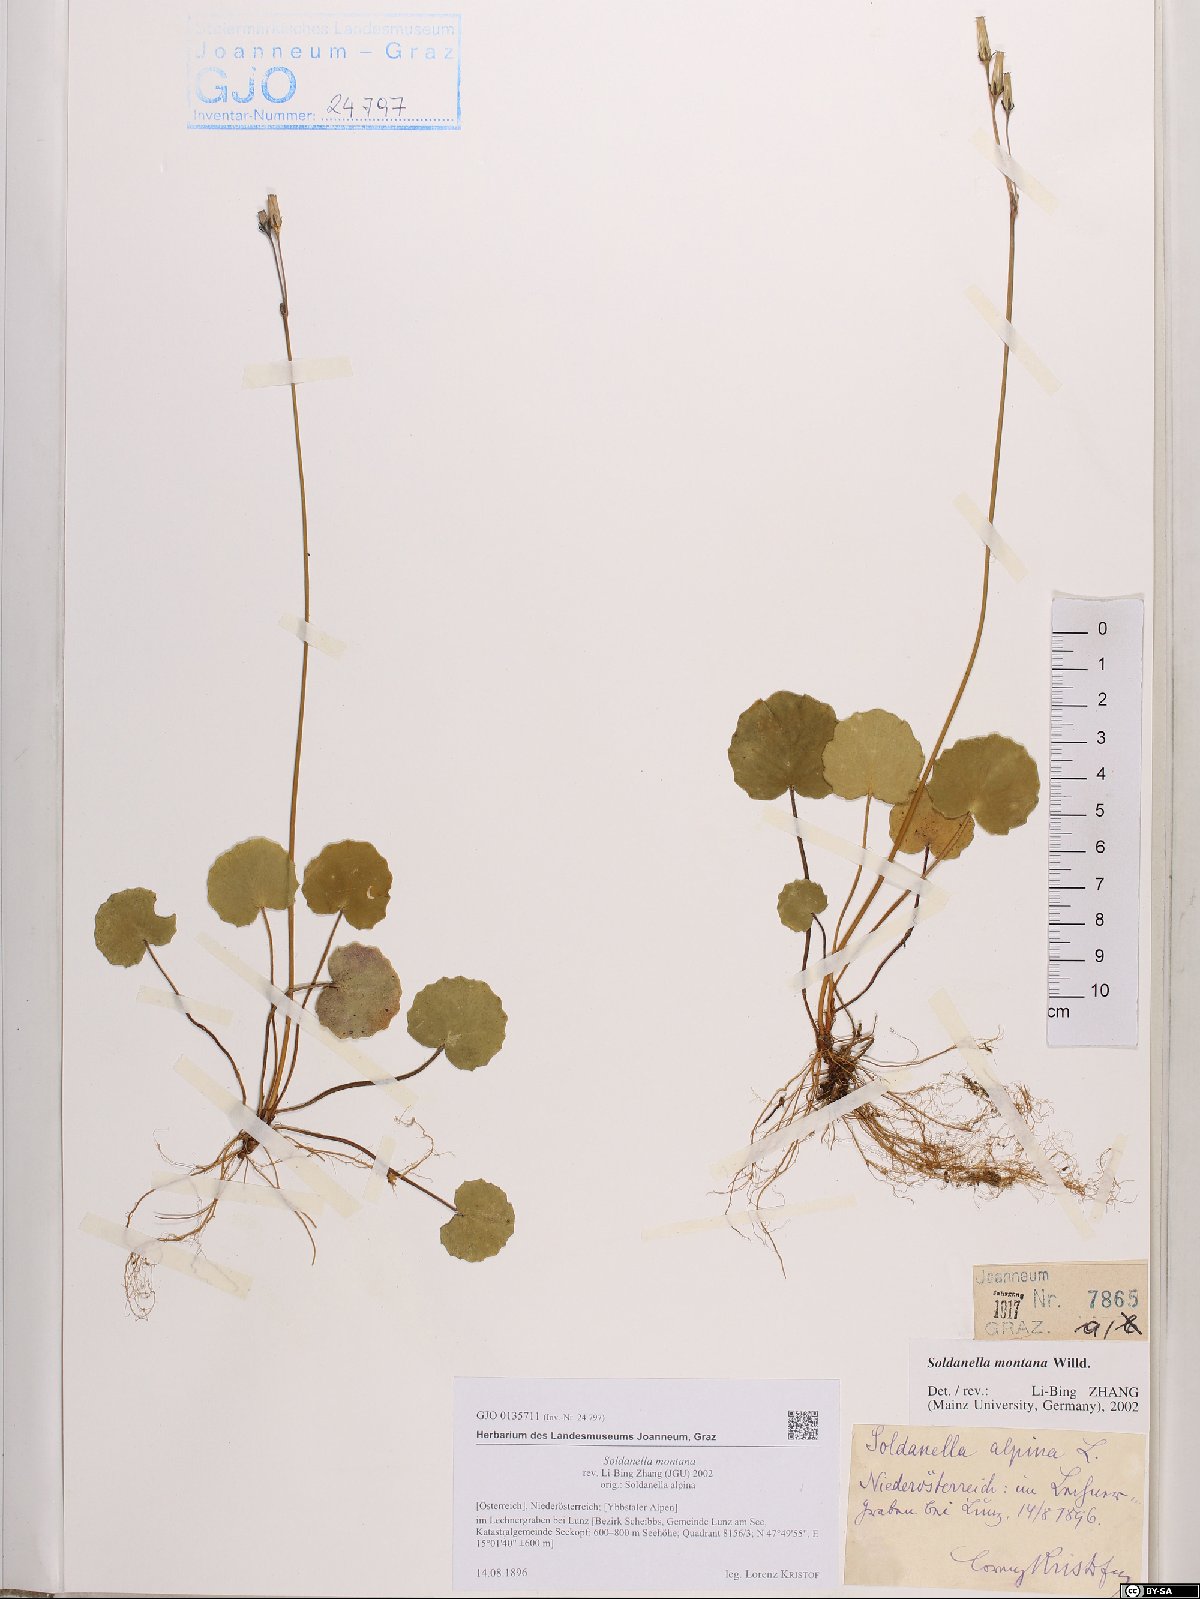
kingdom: Plantae
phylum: Tracheophyta
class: Magnoliopsida
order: Ericales
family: Primulaceae
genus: Soldanella
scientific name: Soldanella montana
